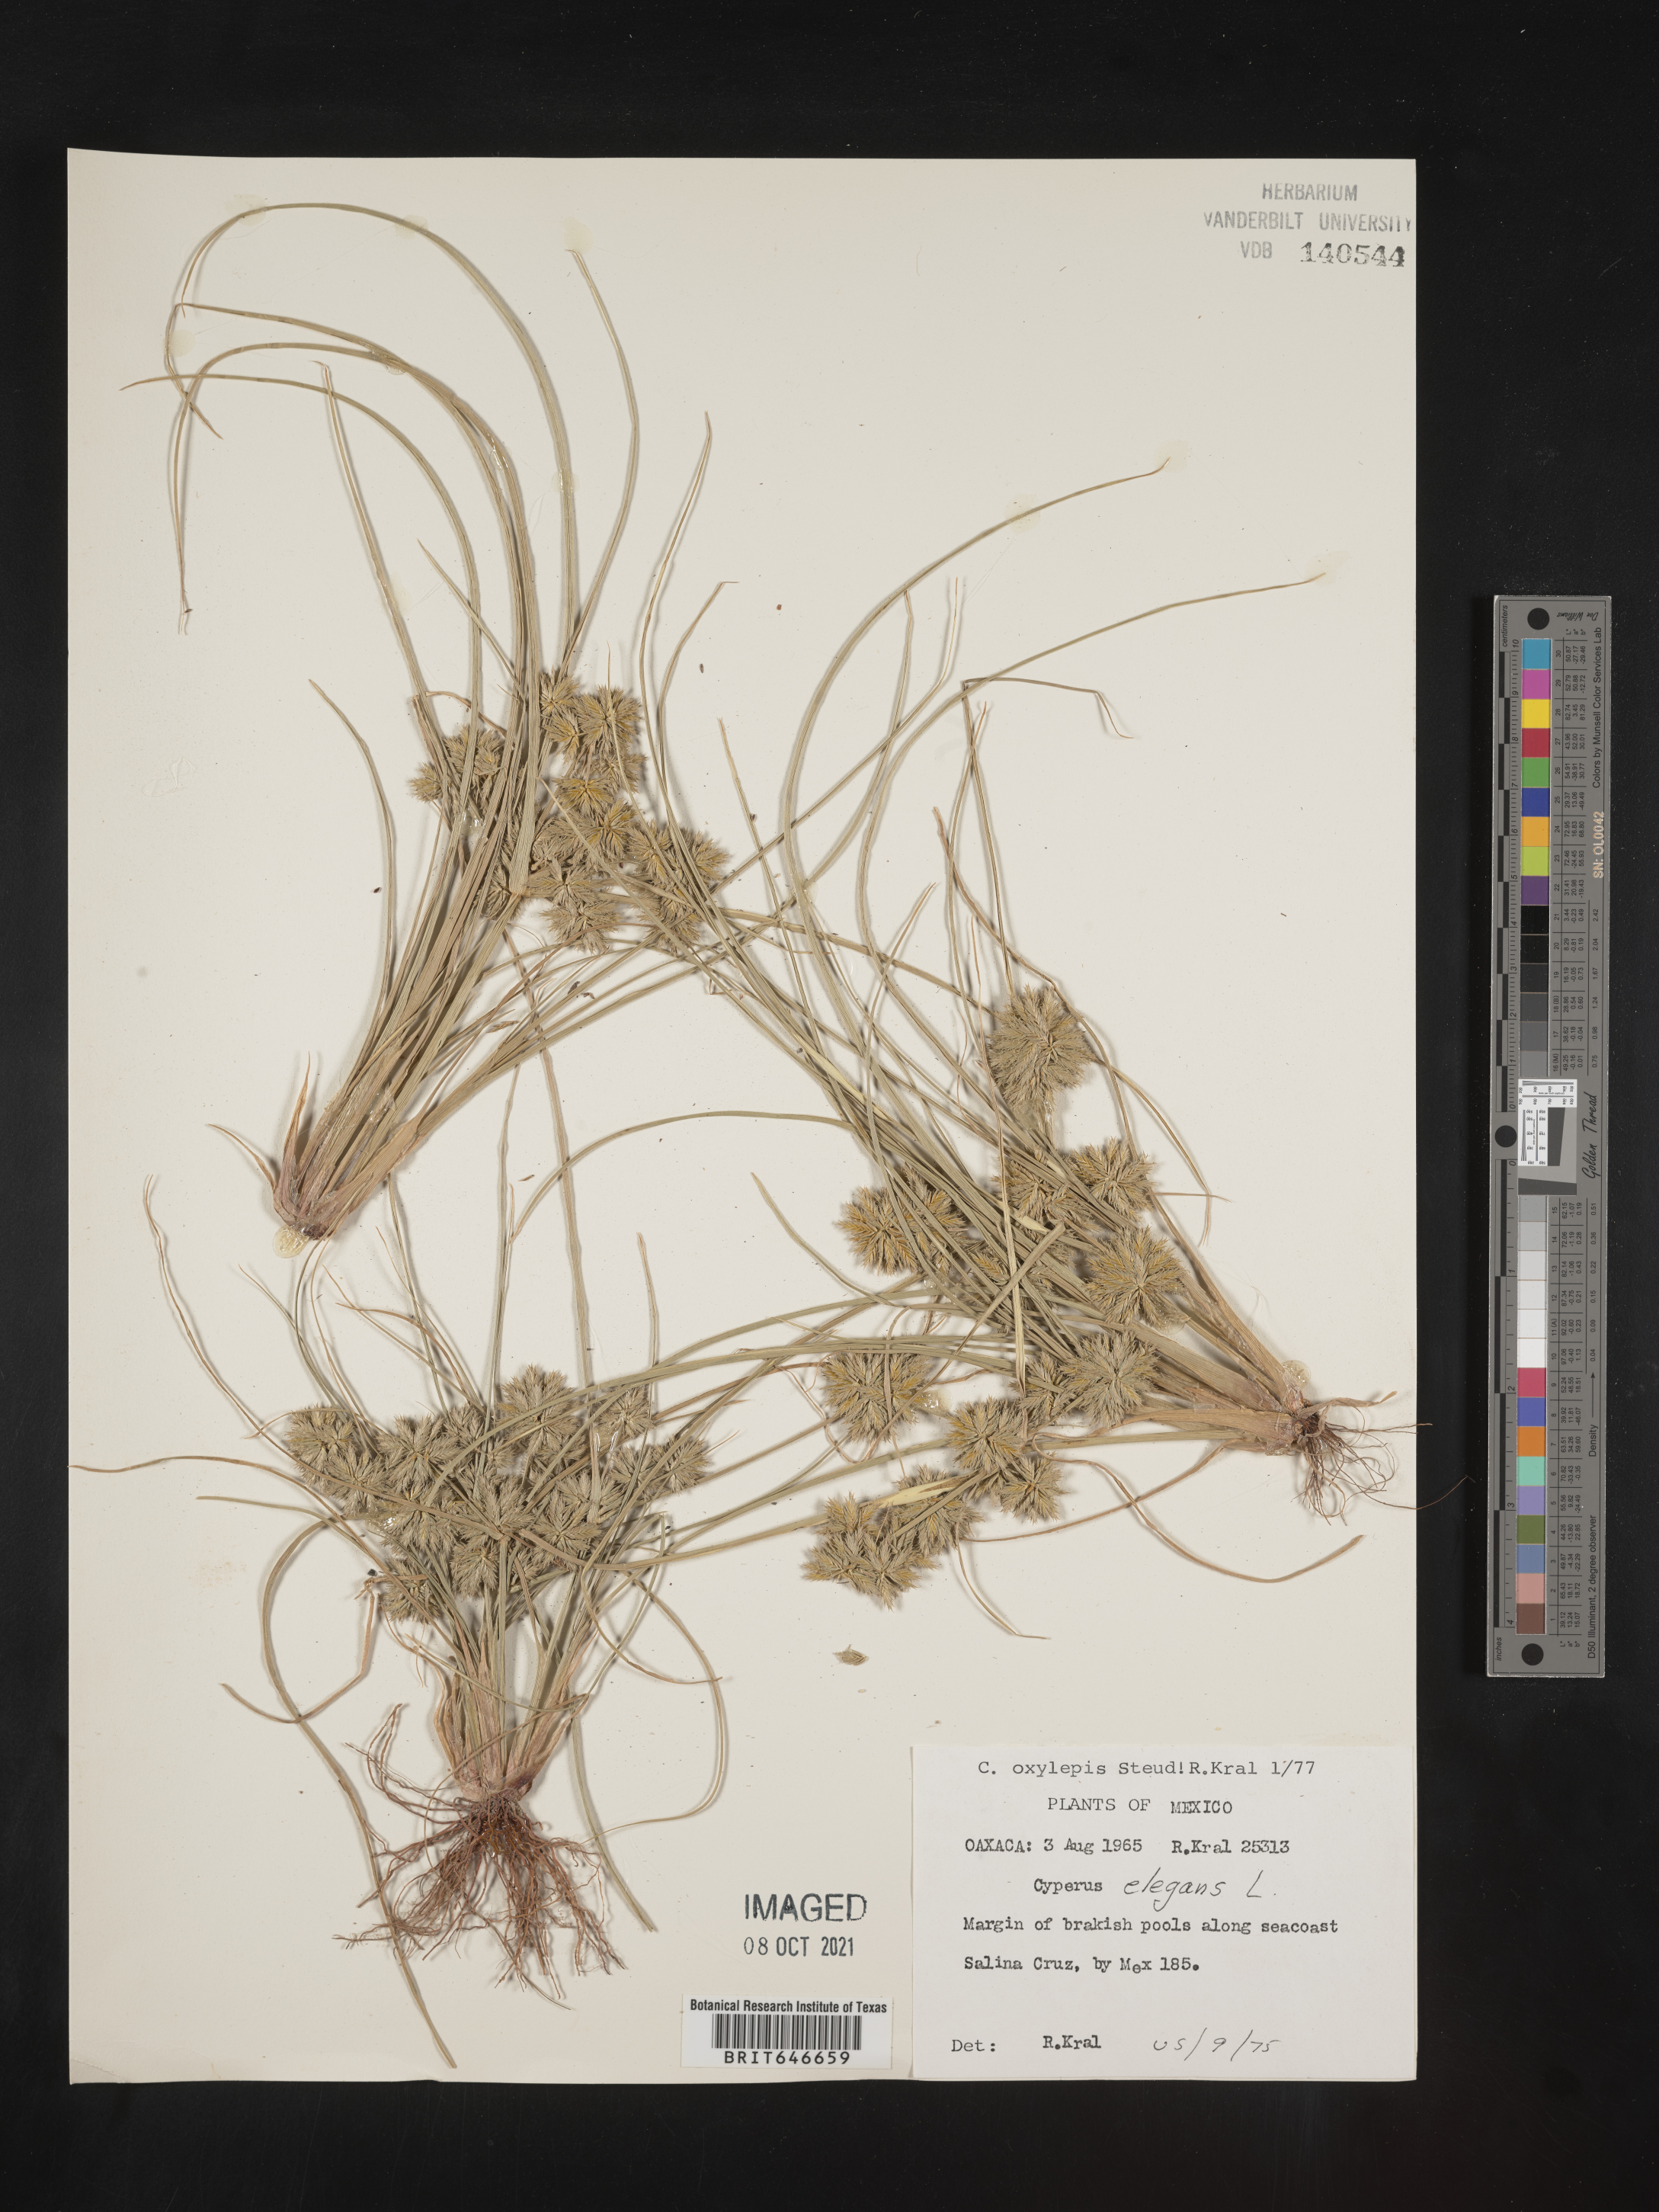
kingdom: Plantae
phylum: Tracheophyta
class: Liliopsida
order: Poales
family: Cyperaceae
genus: Cyperus
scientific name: Cyperus
